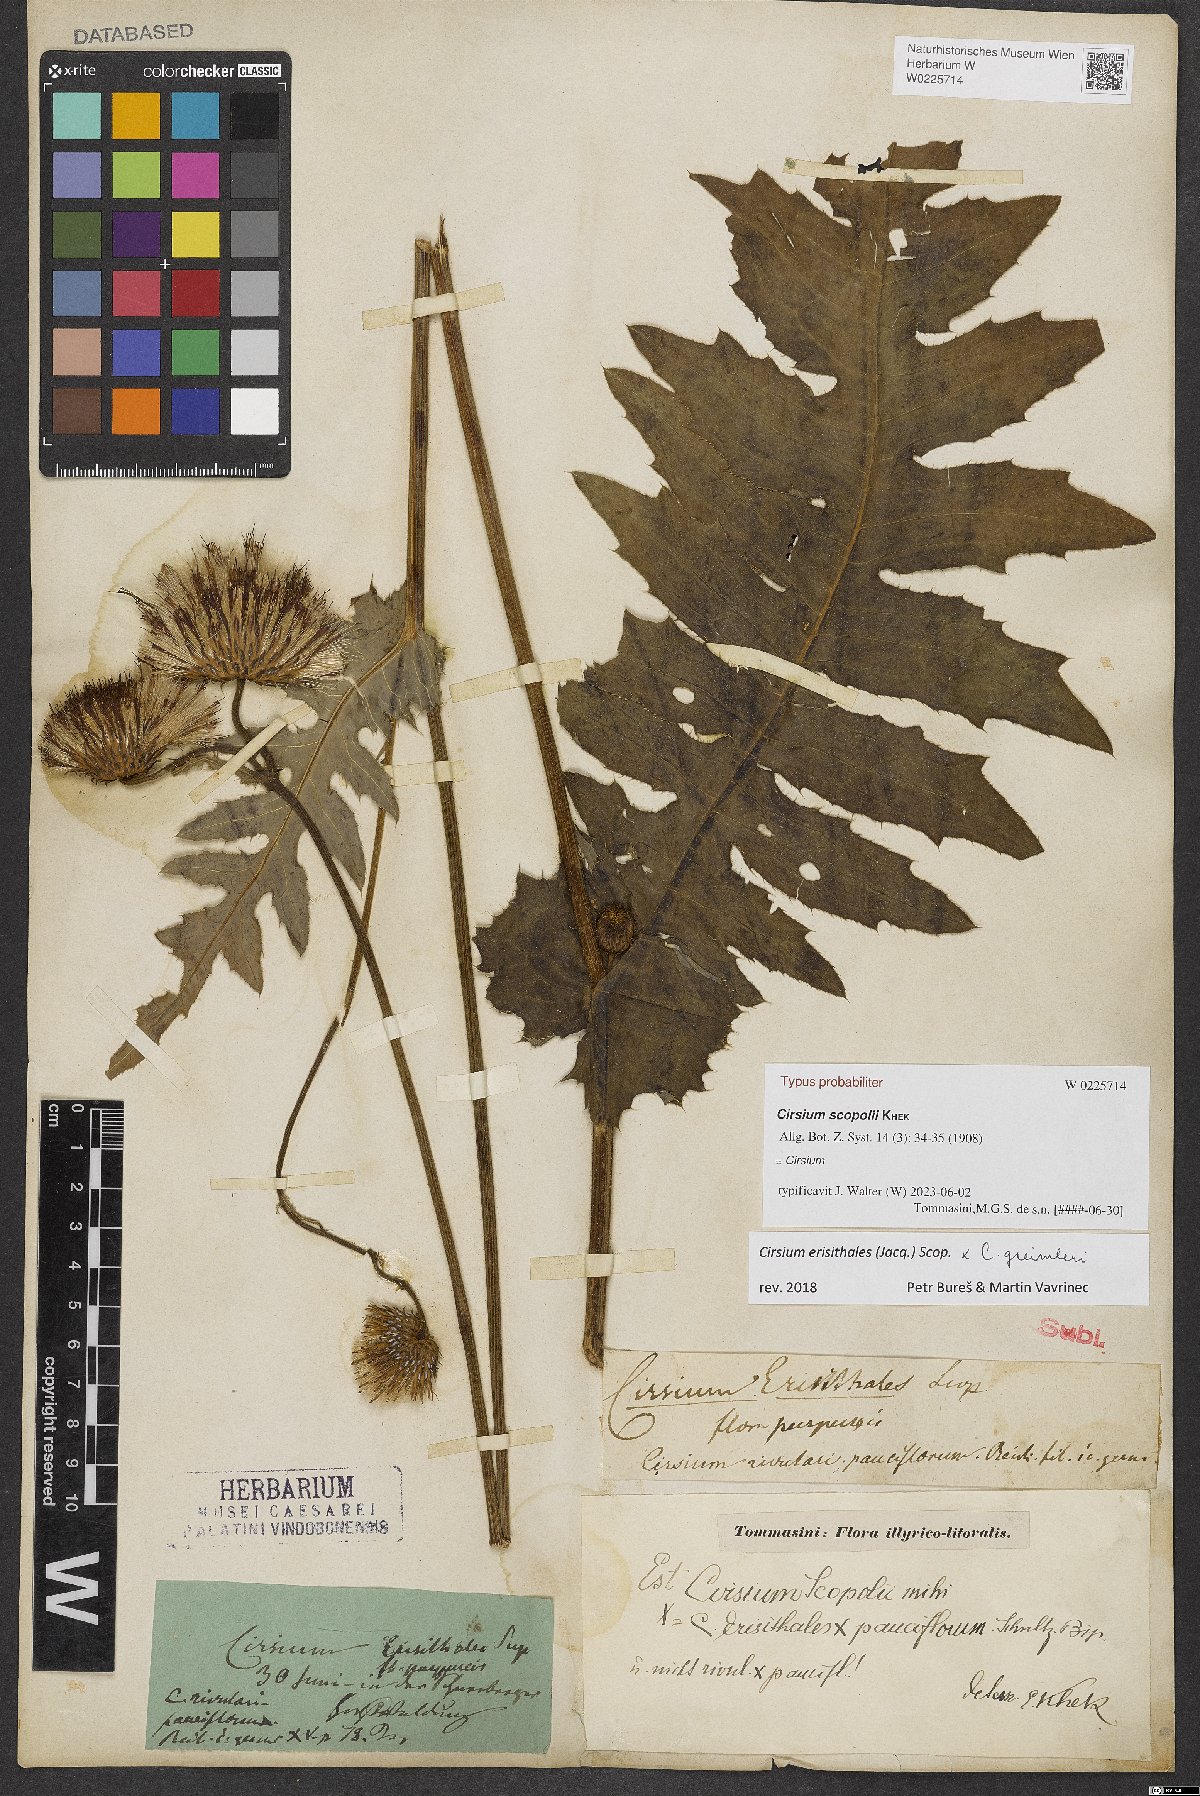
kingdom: Plantae
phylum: Tracheophyta
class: Magnoliopsida
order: Asterales
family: Asteraceae
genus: Cirsium
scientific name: Cirsium scopolii
